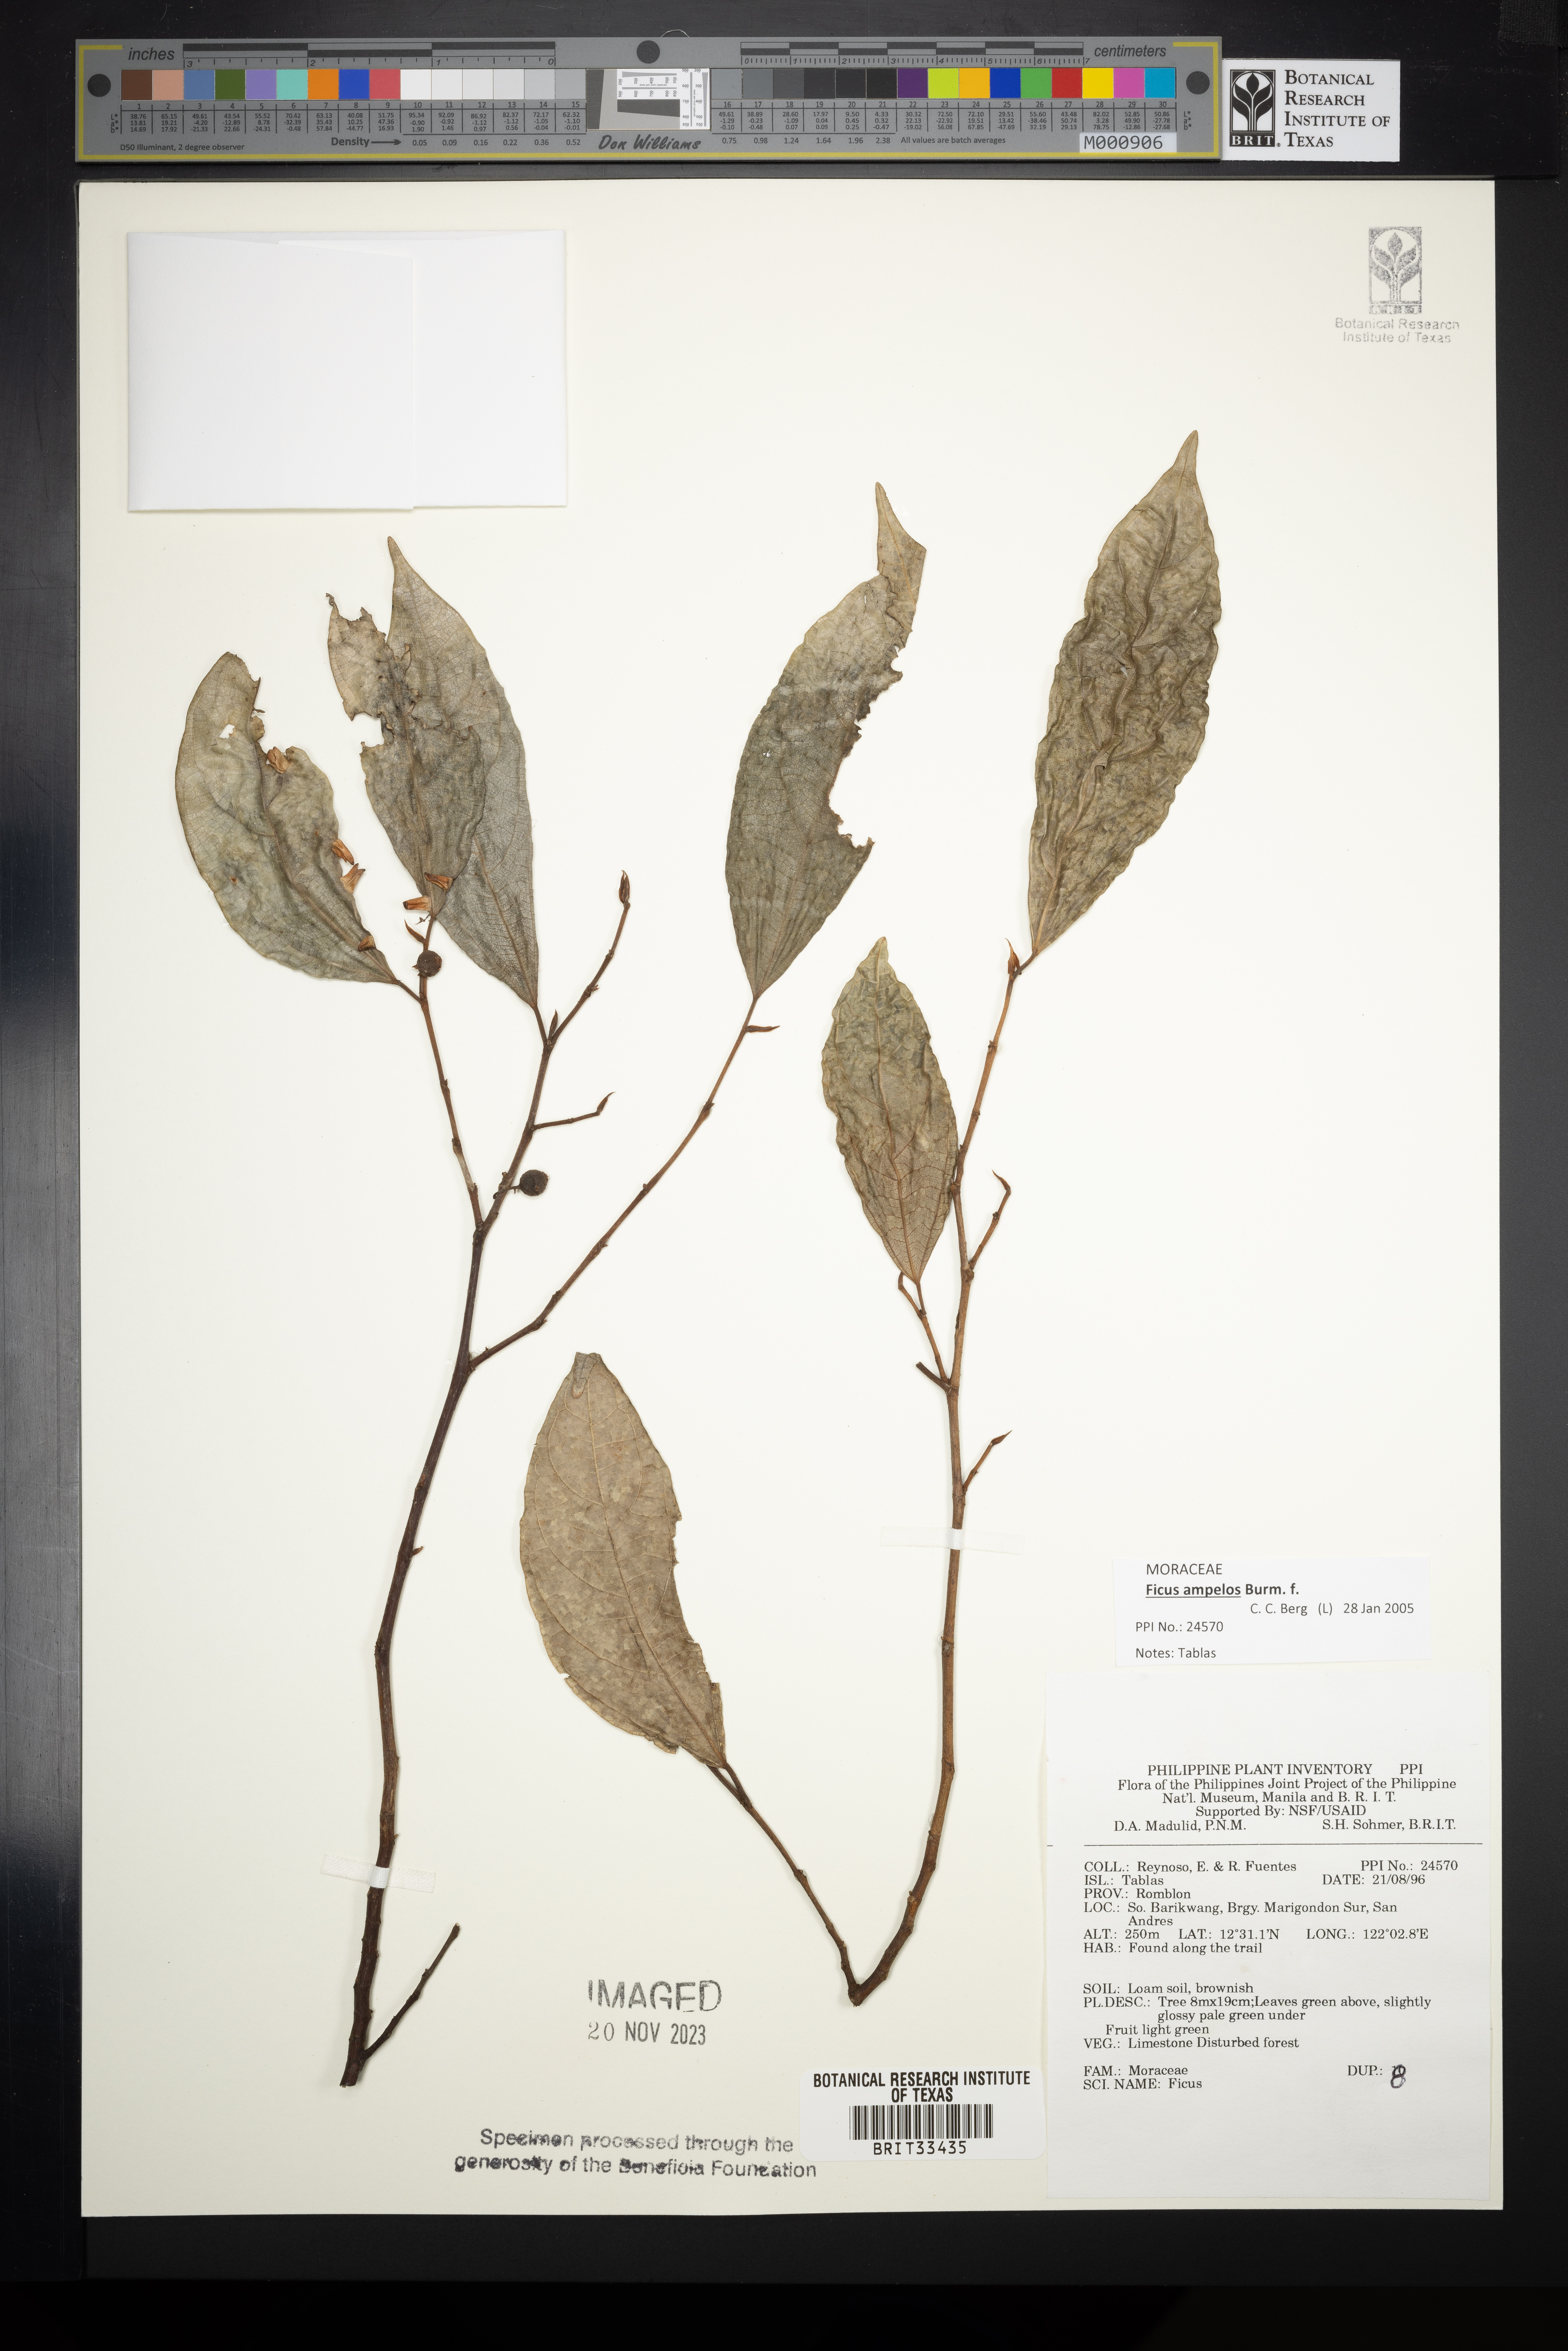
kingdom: Plantae
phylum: Tracheophyta
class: Magnoliopsida
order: Rosales
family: Moraceae
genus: Ficus
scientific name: Ficus
